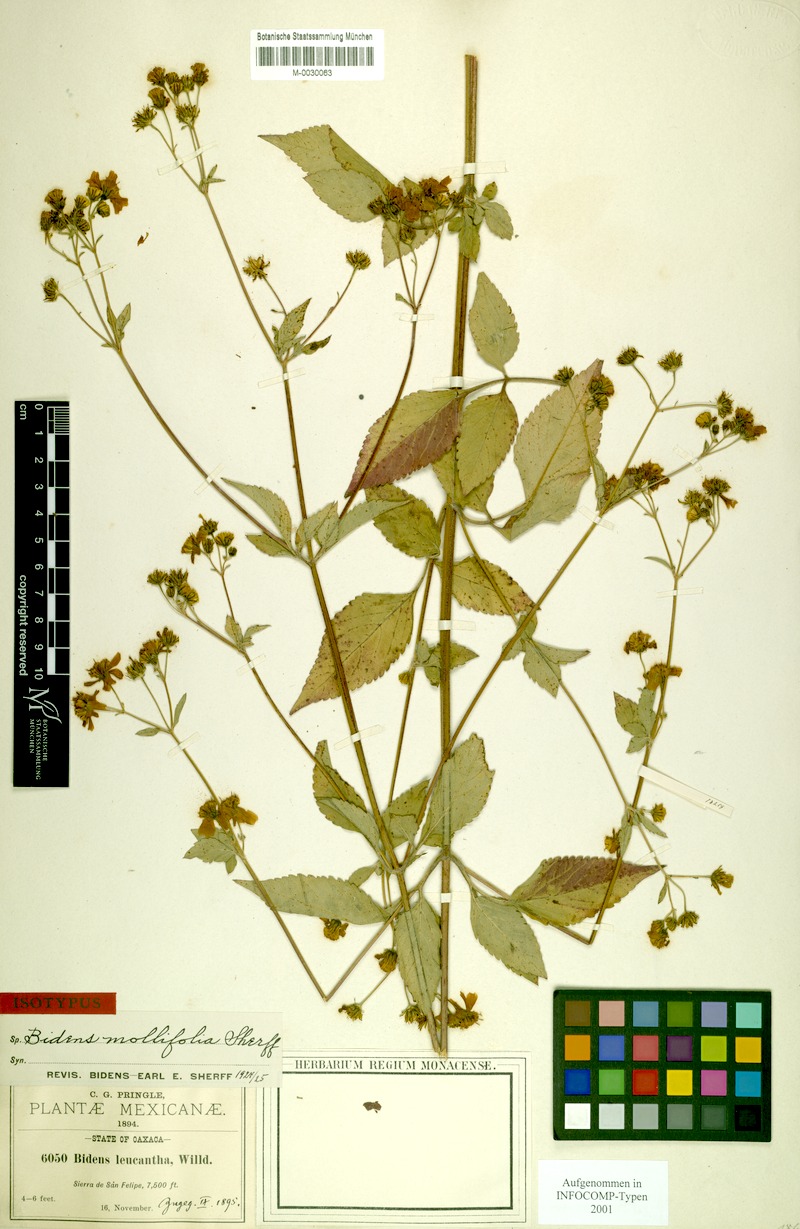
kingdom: Plantae
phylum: Tracheophyta
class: Magnoliopsida
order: Asterales
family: Asteraceae
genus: Bidens
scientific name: Bidens mollifolia
